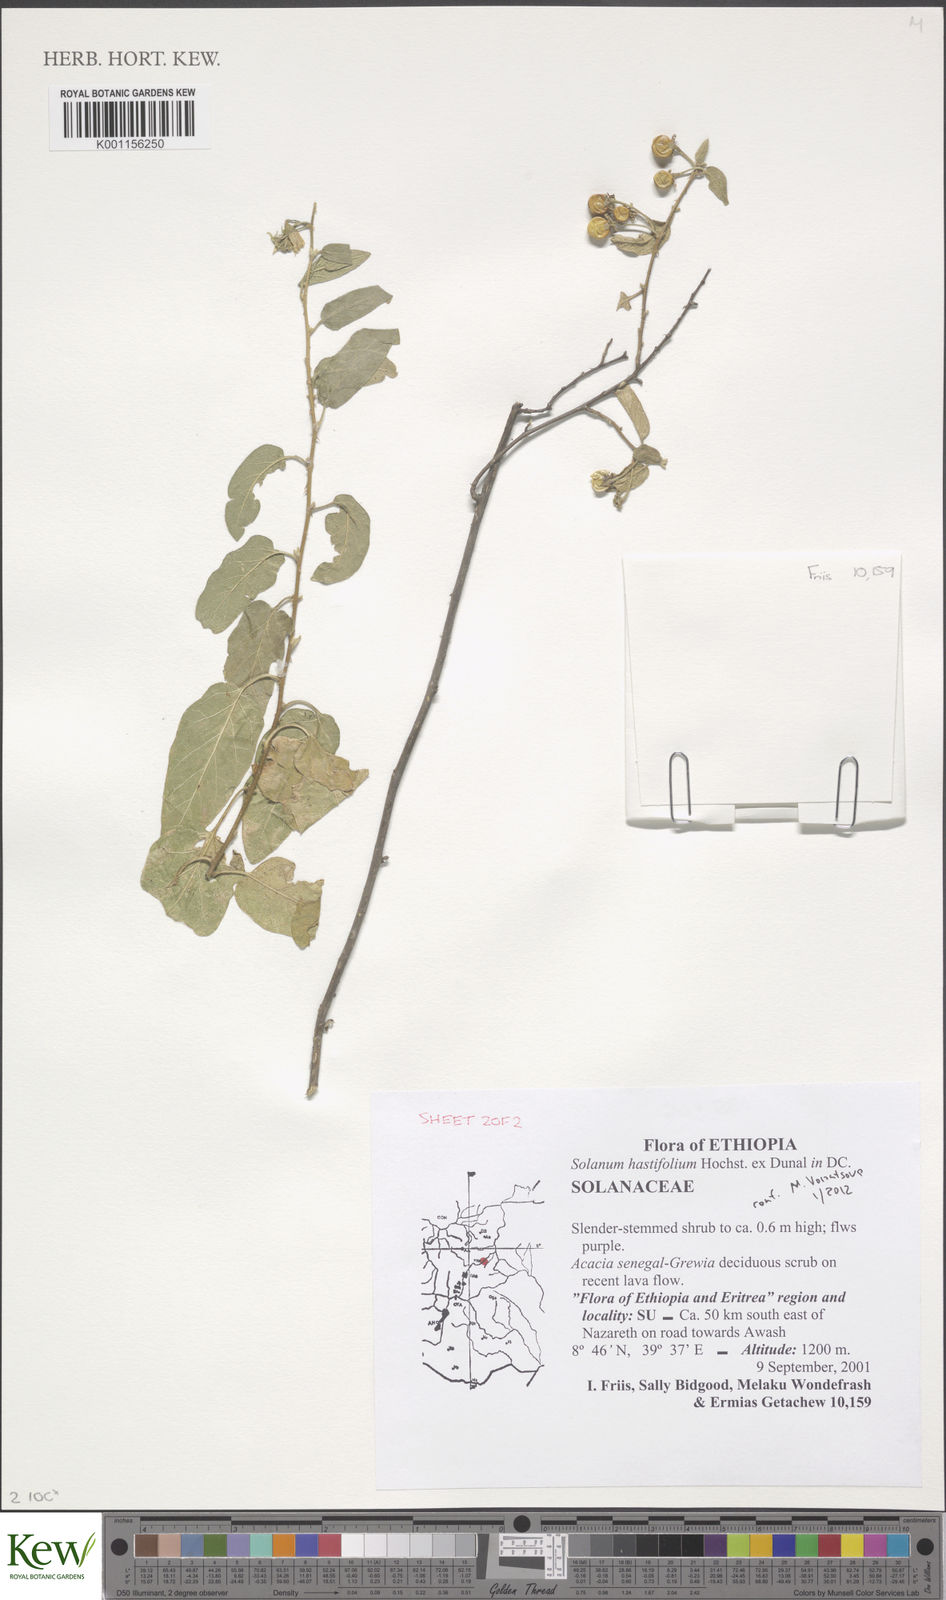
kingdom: Plantae
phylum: Tracheophyta
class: Magnoliopsida
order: Solanales
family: Solanaceae
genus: Solanum
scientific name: Solanum hastifolium
